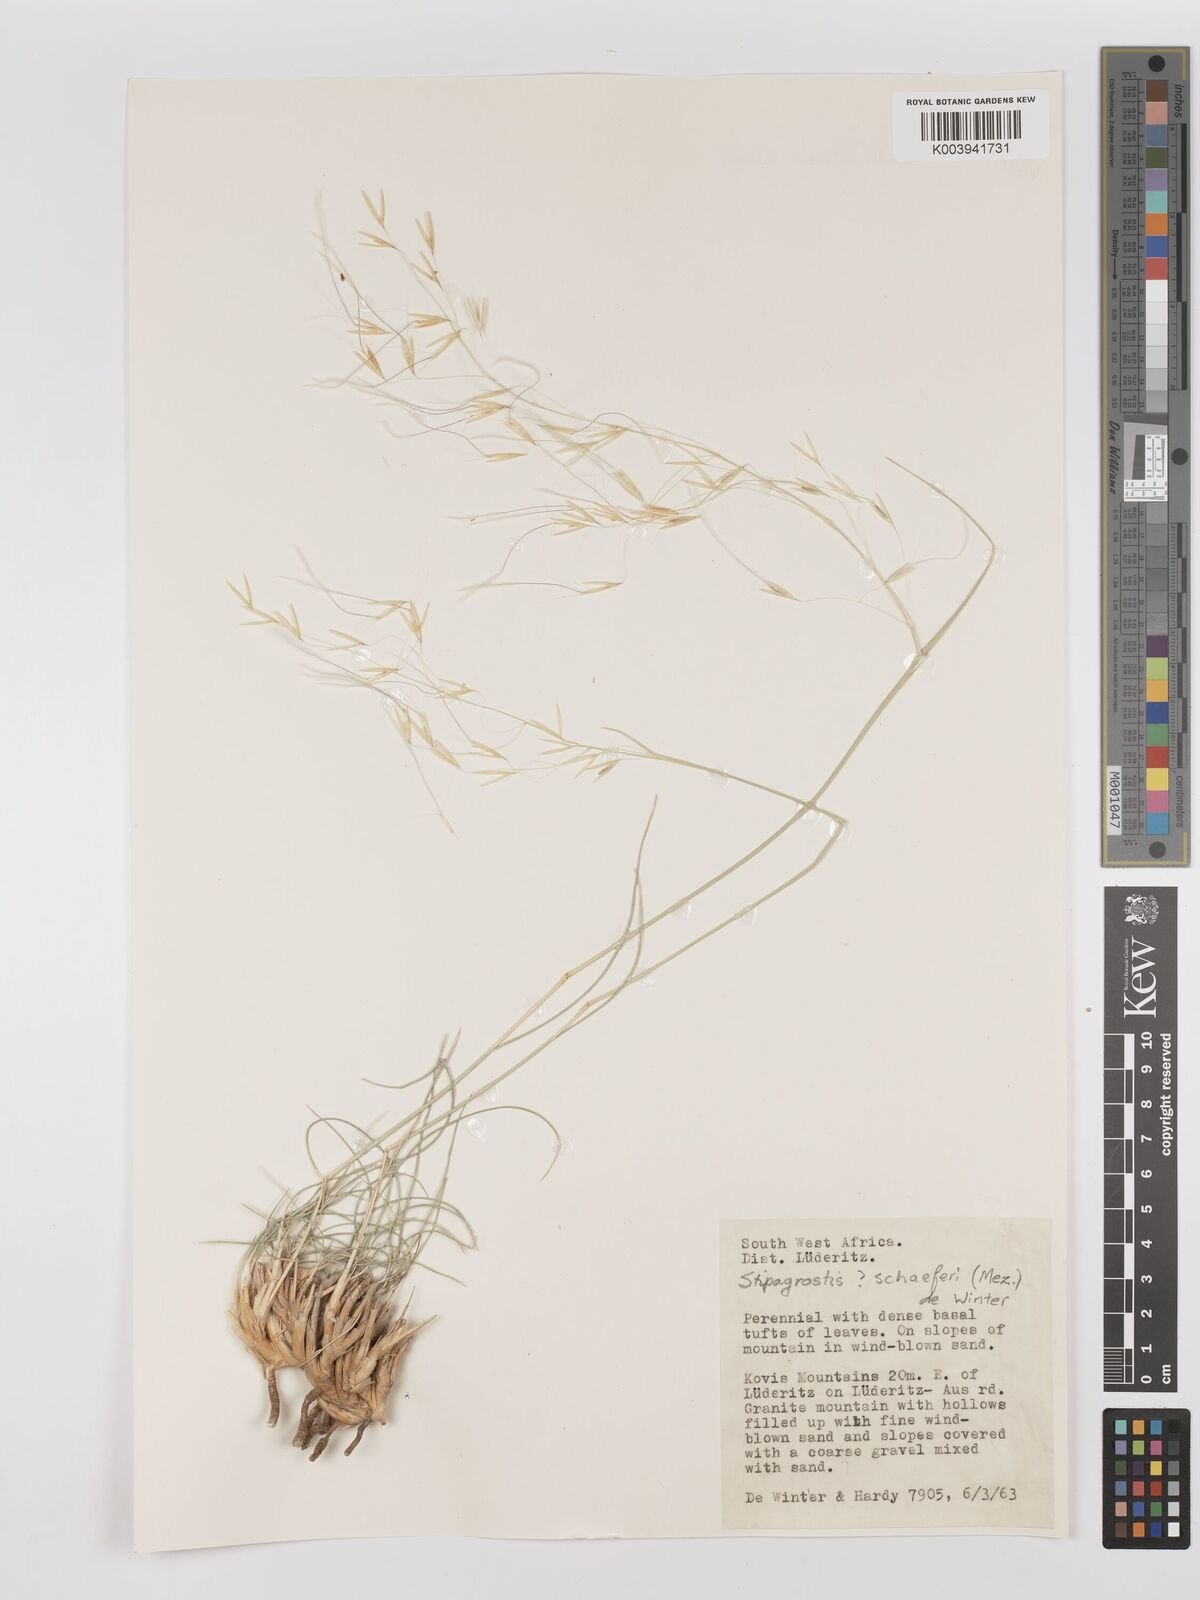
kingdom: Plantae
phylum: Tracheophyta
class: Liliopsida
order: Poales
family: Poaceae
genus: Stipagrostis
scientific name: Stipagrostis schaeferi
